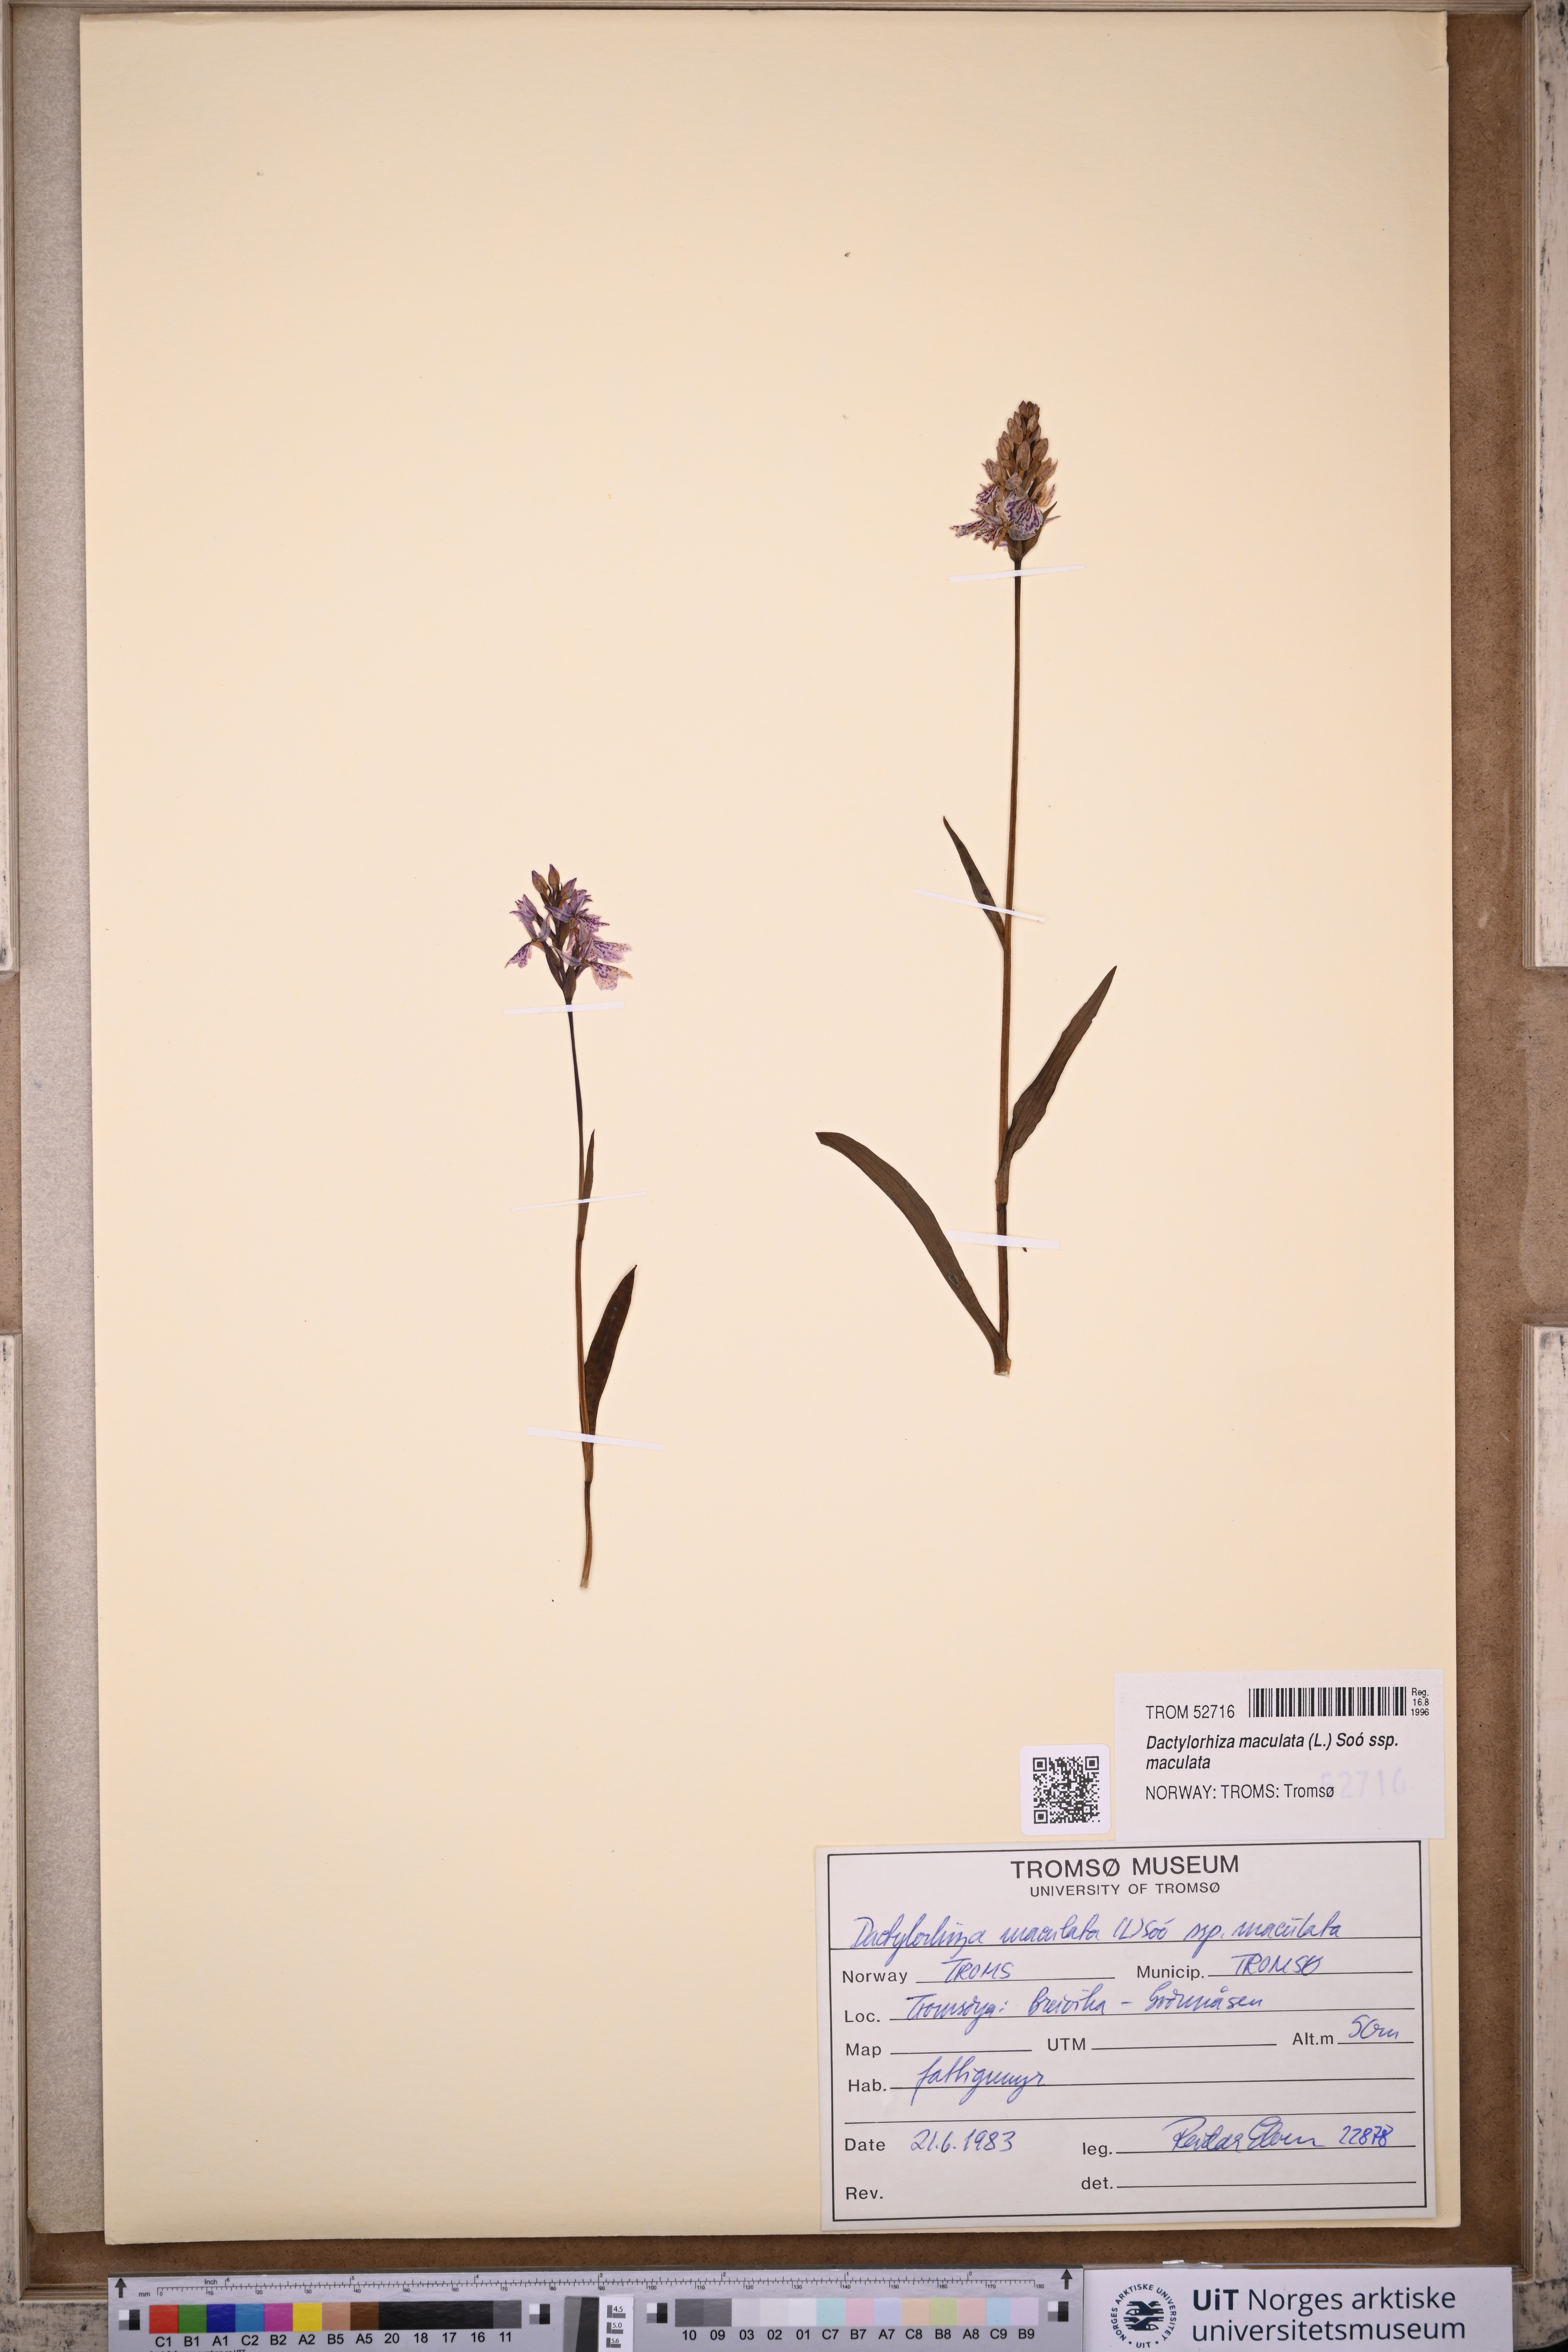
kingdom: Plantae
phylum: Tracheophyta
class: Liliopsida
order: Asparagales
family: Orchidaceae
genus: Dactylorhiza
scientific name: Dactylorhiza maculata
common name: Heath spotted-orchid
